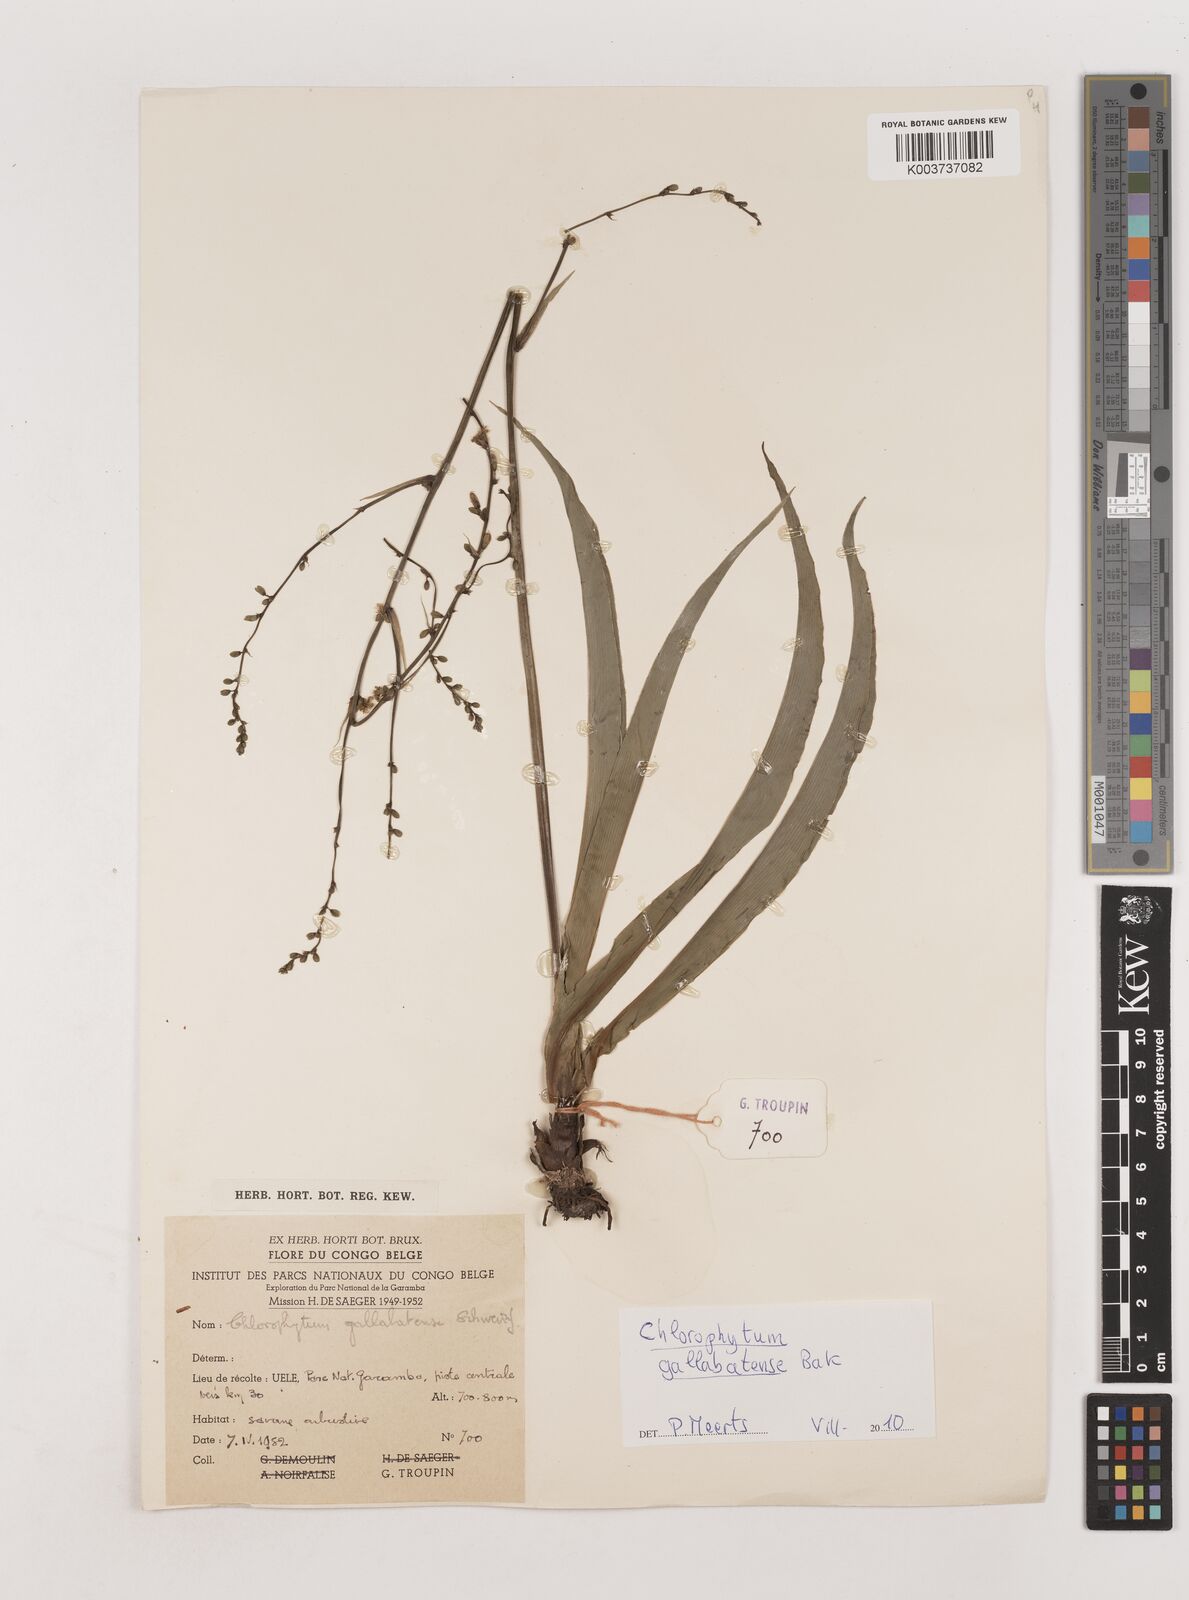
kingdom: Plantae
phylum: Tracheophyta
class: Liliopsida
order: Asparagales
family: Asparagaceae
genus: Chlorophytum
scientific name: Chlorophytum gallabatense
